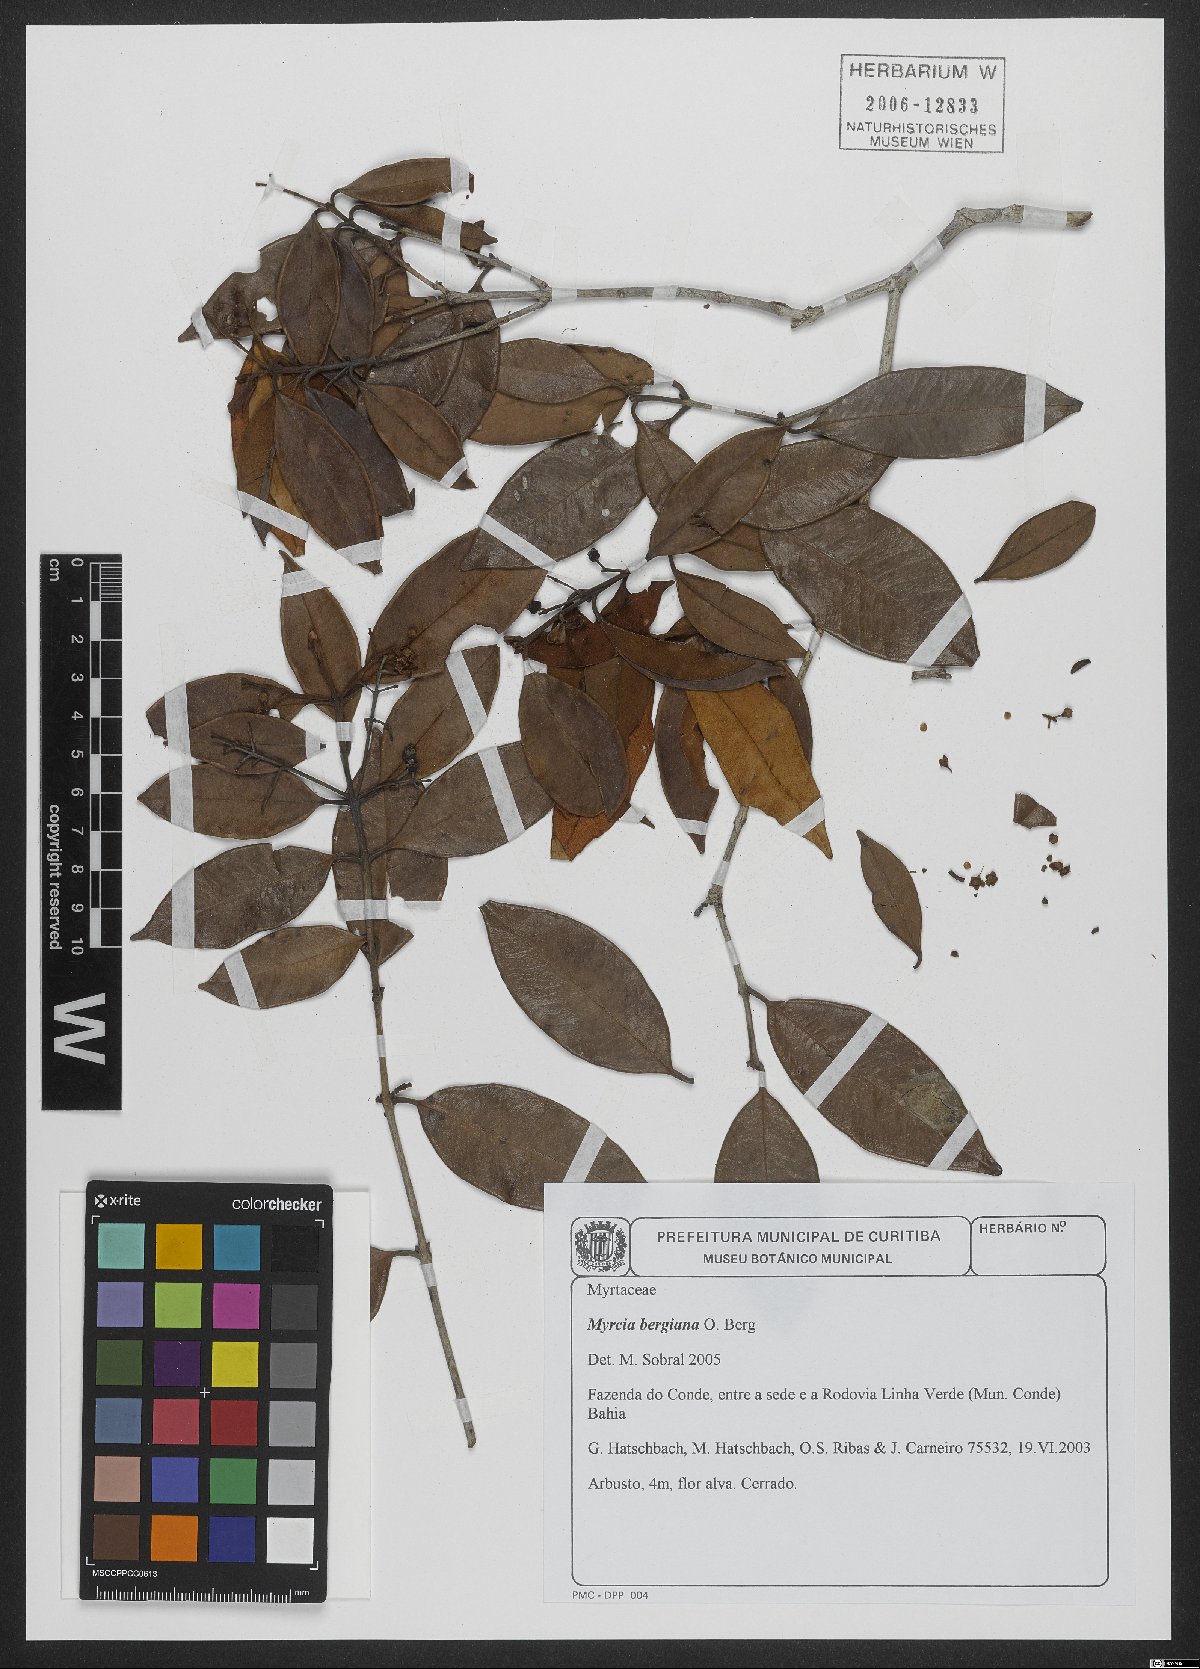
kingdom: Plantae
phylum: Tracheophyta
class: Magnoliopsida
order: Myrtales
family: Myrtaceae
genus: Myrcia
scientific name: Myrcia bergiana
